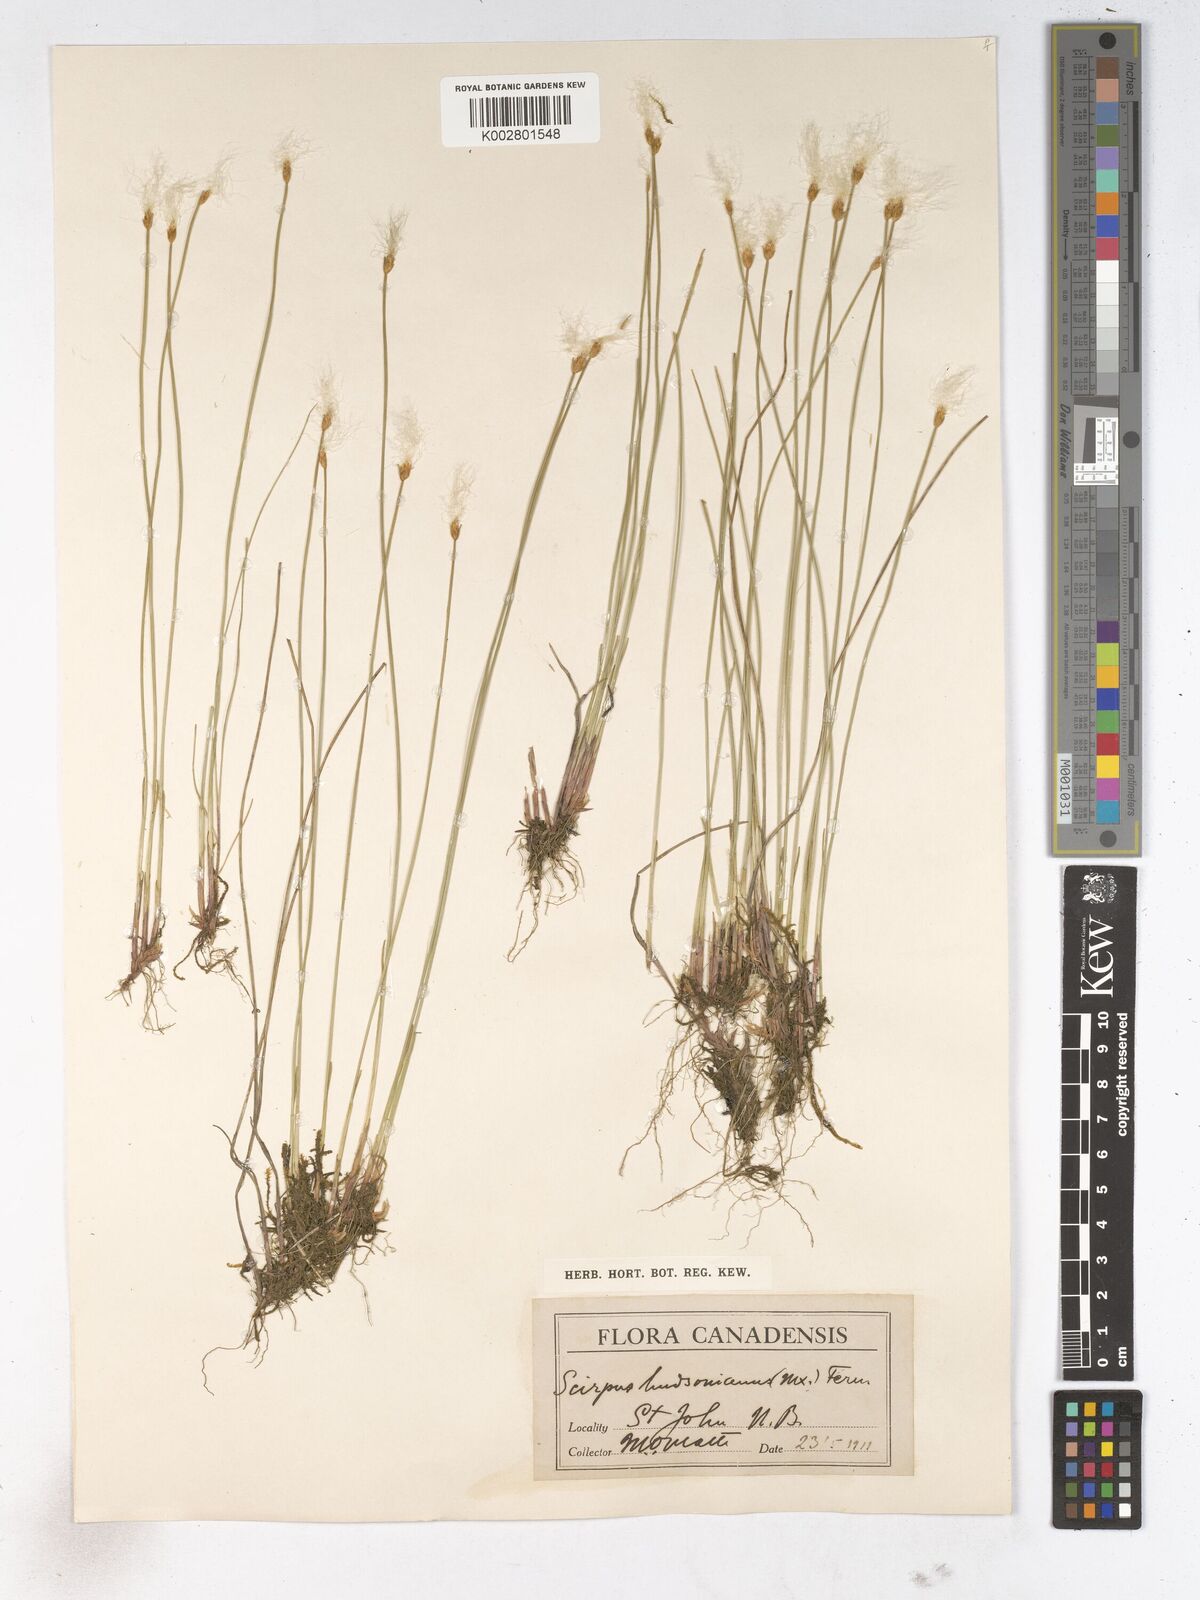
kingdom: Plantae
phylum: Tracheophyta
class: Liliopsida
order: Poales
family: Cyperaceae
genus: Trichophorum
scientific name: Trichophorum alpinum
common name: Alpine bulrush
